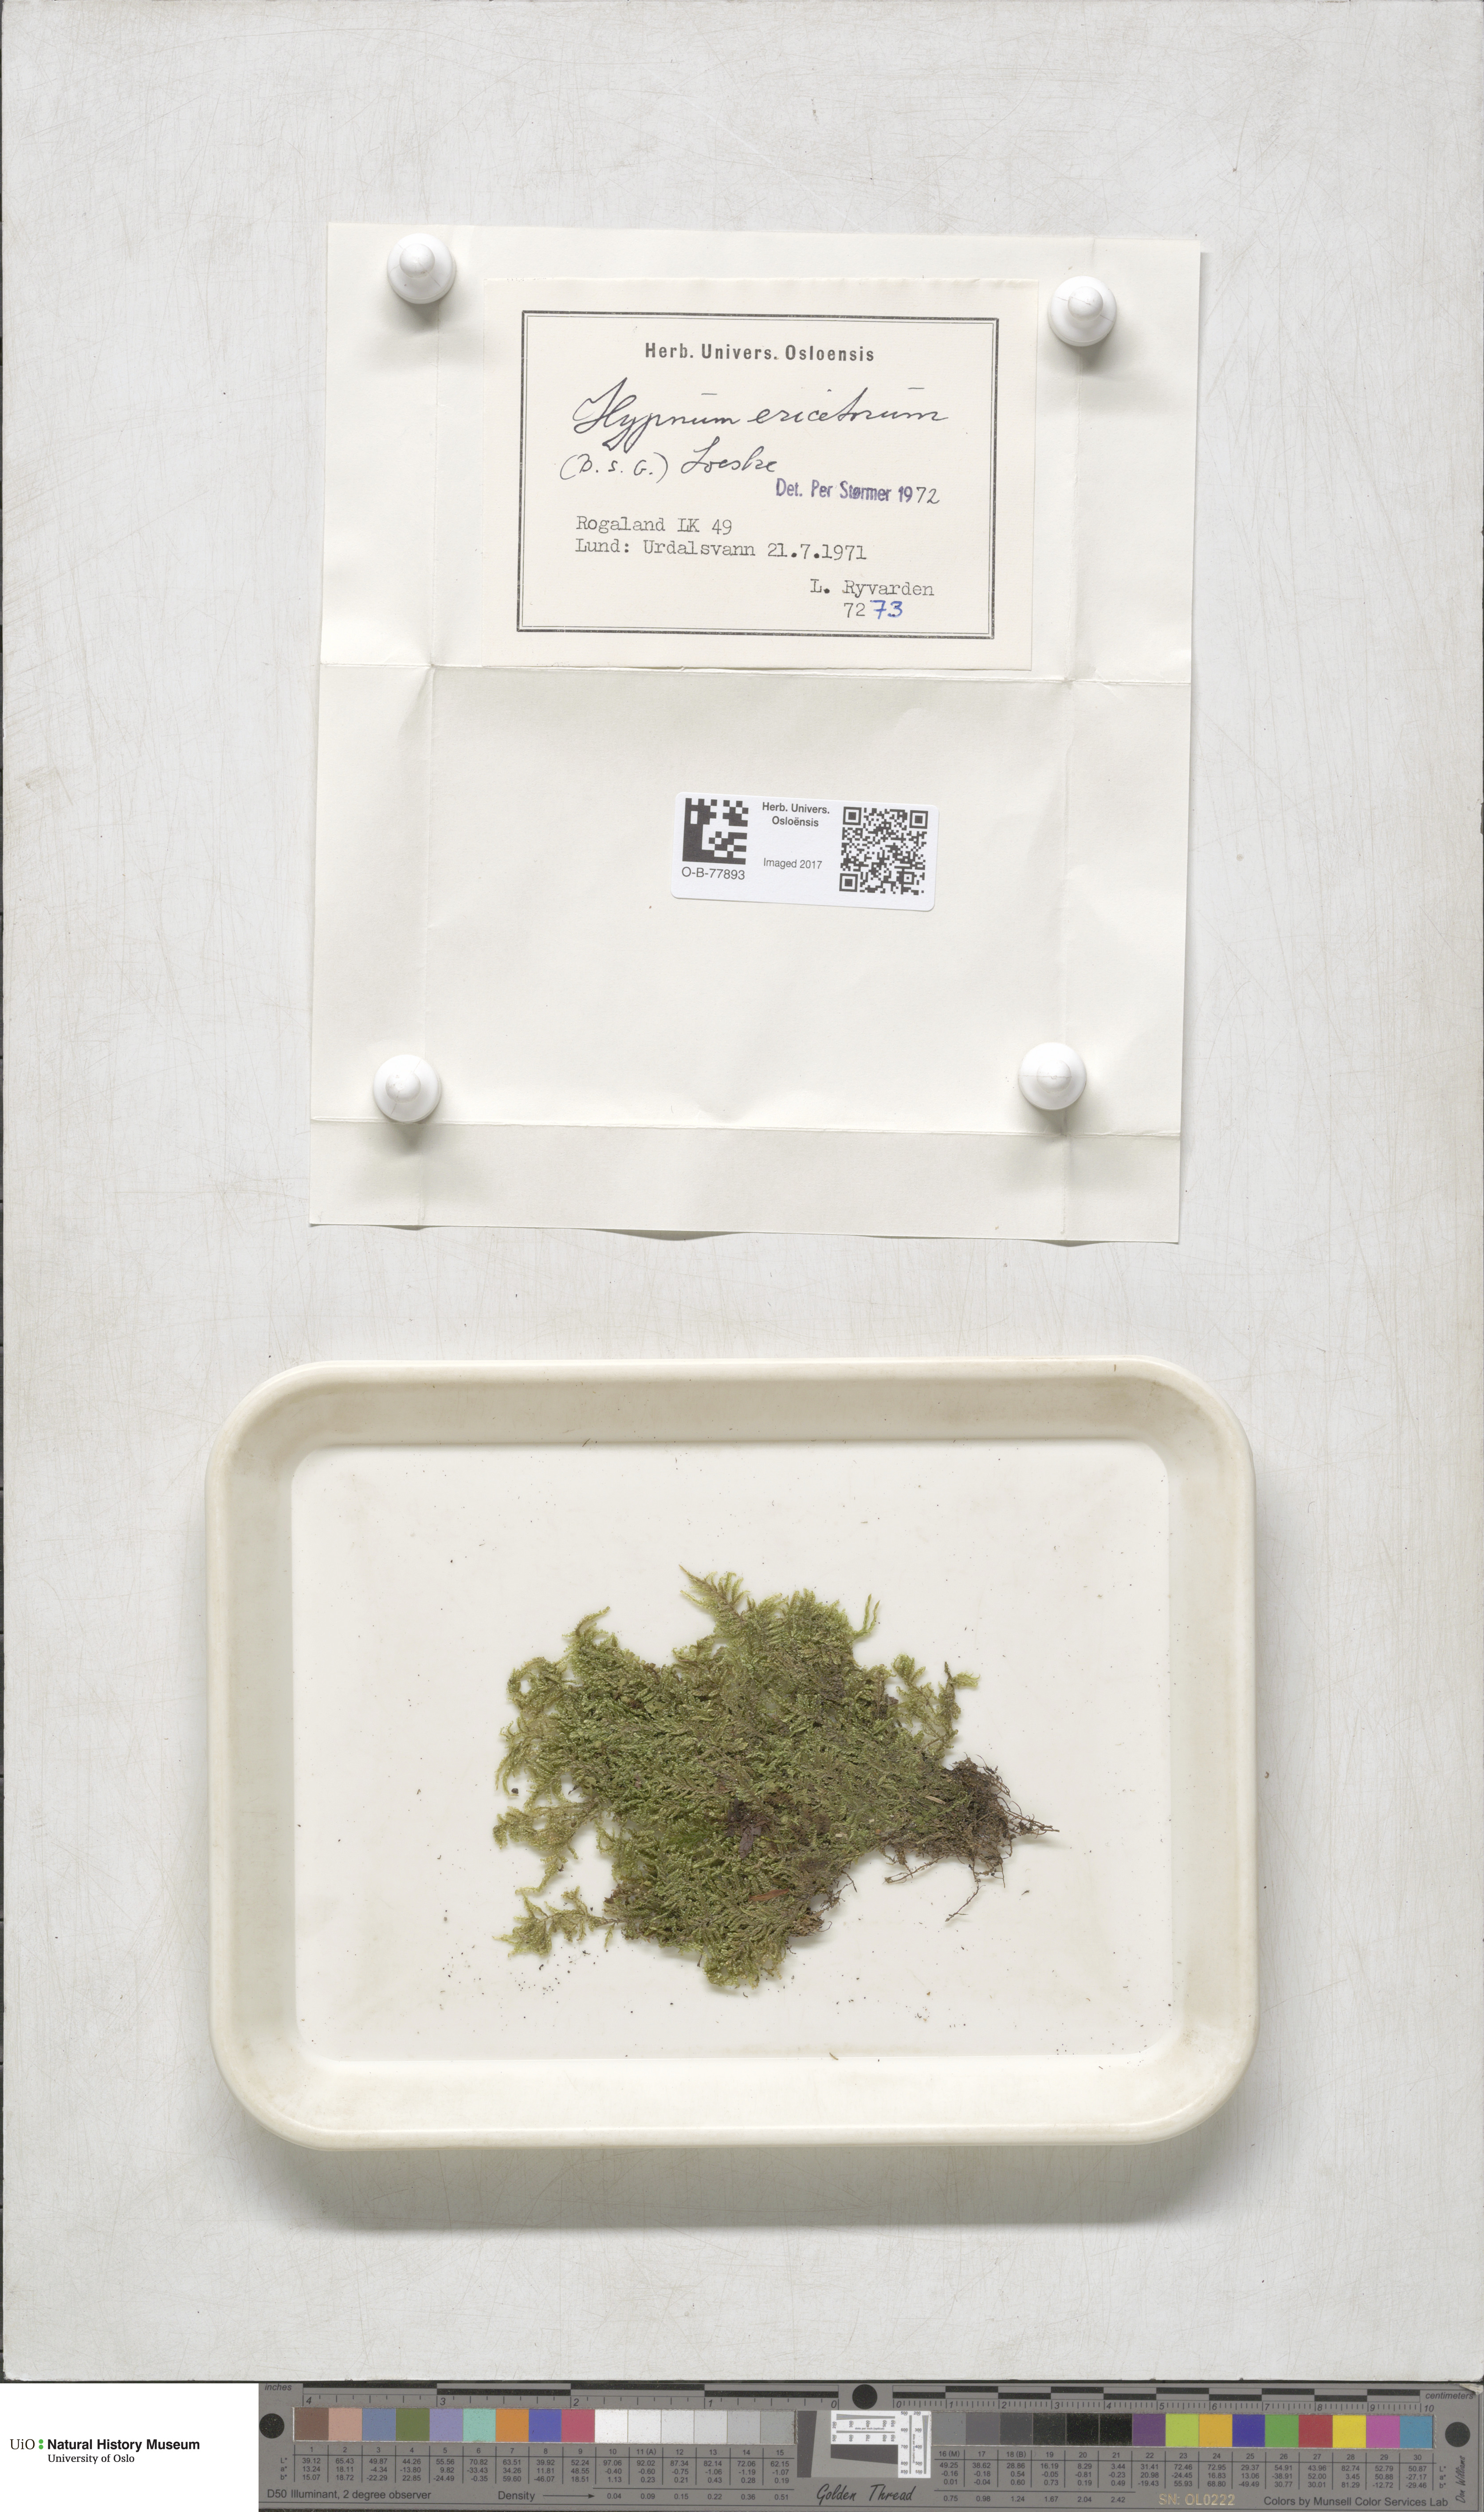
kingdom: Plantae
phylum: Bryophyta
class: Bryopsida
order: Hypnales
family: Hypnaceae
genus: Hypnum
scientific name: Hypnum jutlandicum
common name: Heath plait-moss
